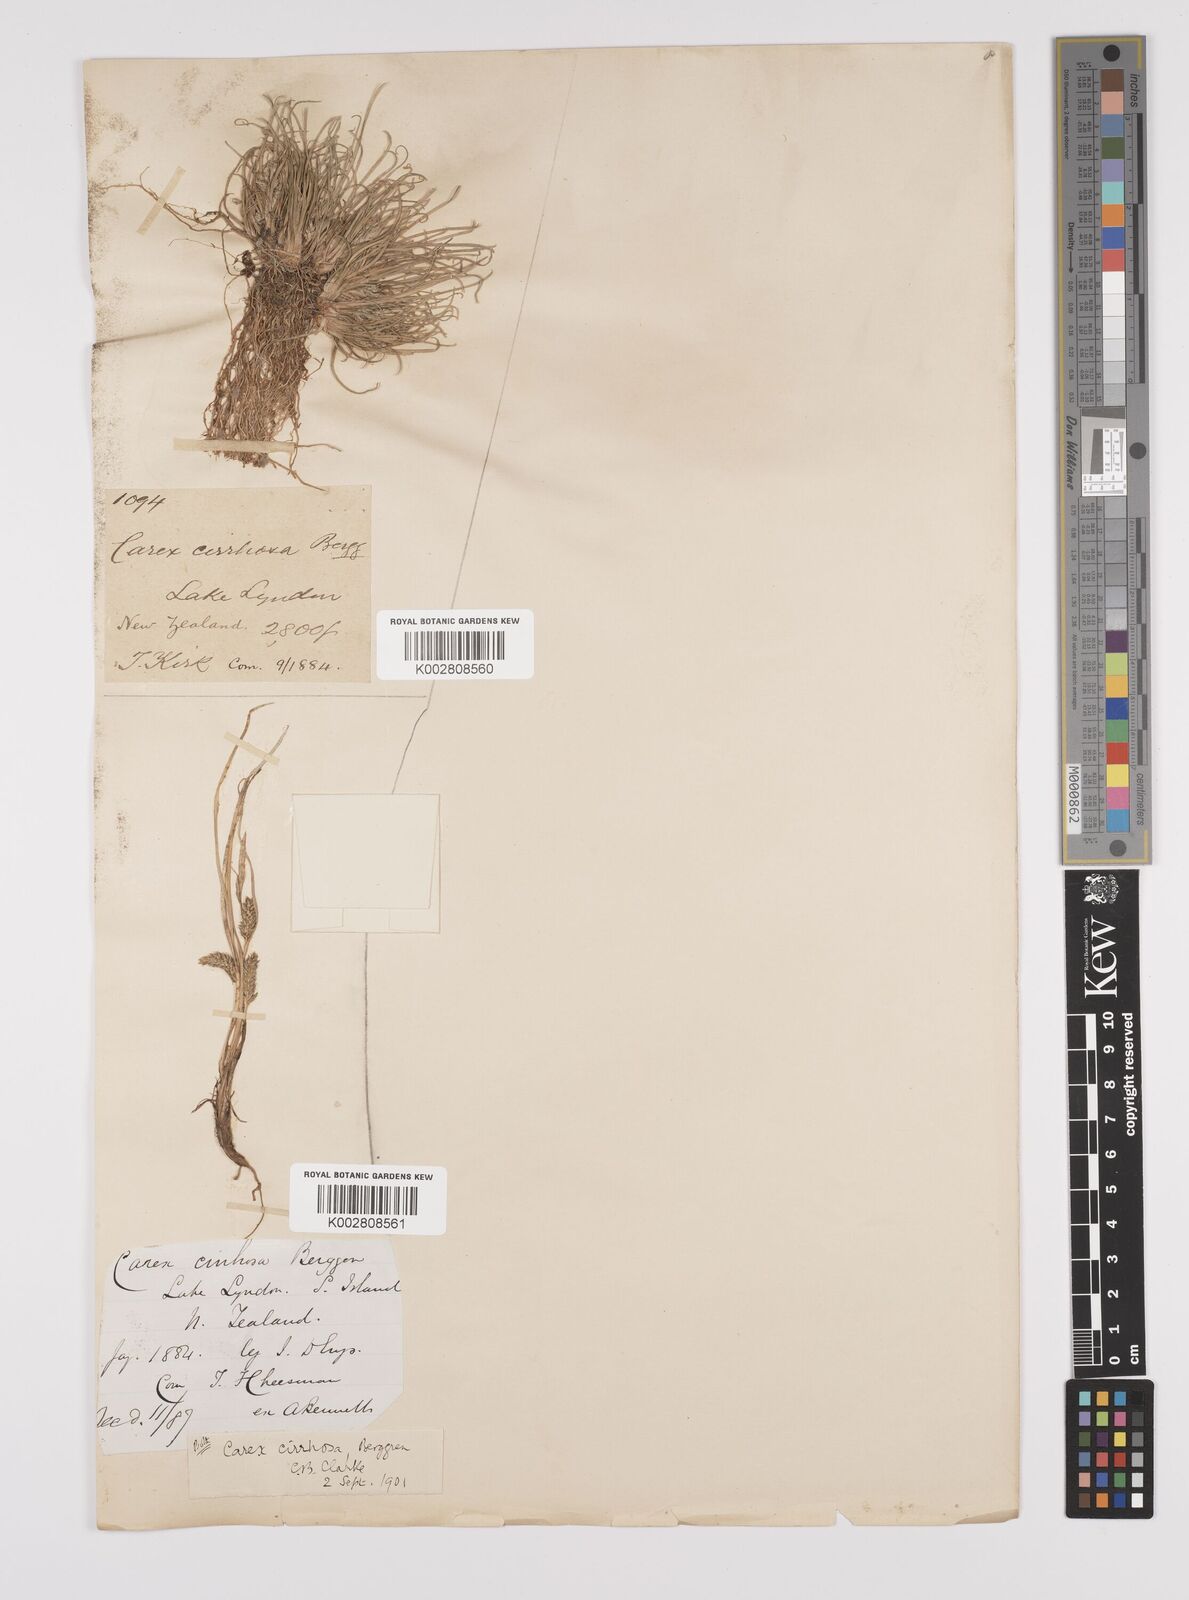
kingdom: Plantae
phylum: Tracheophyta
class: Liliopsida
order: Poales
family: Cyperaceae
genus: Carex
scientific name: Carex cirrhosa
